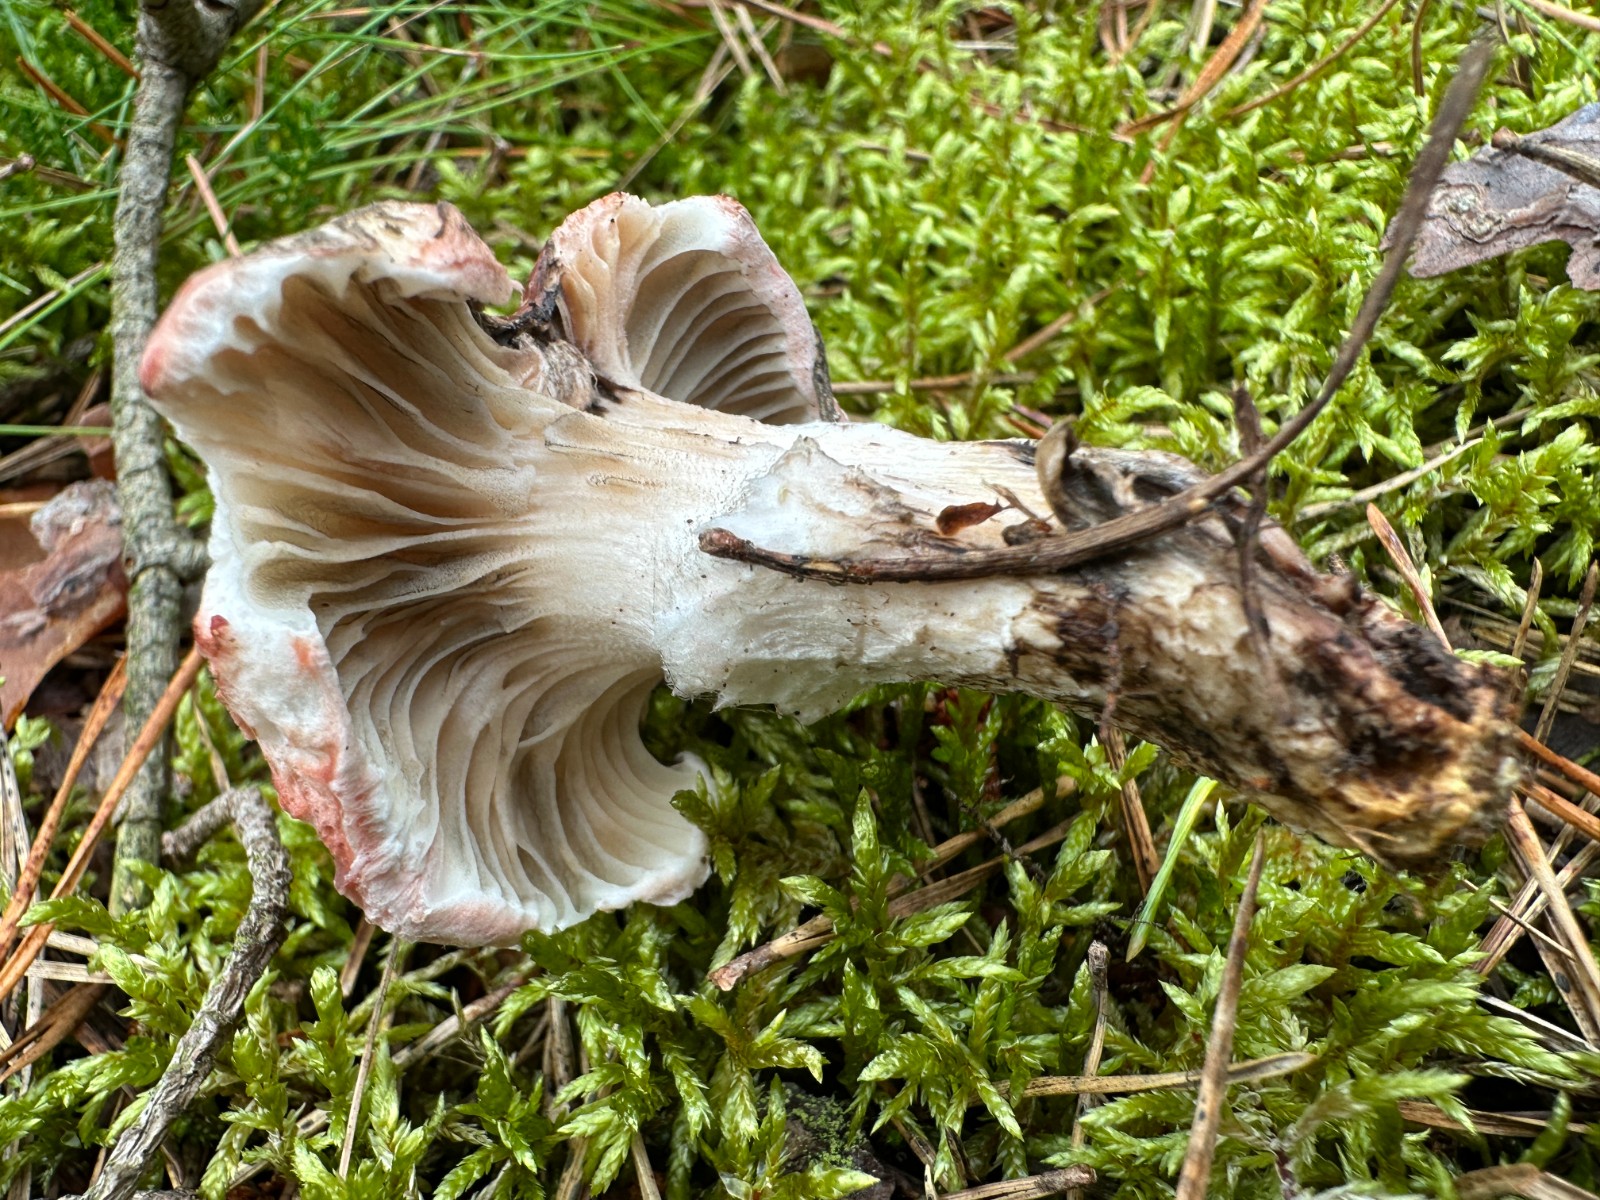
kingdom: Fungi
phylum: Basidiomycota
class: Agaricomycetes
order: Boletales
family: Gomphidiaceae
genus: Gomphidius
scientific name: Gomphidius roseus
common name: rosenrød slimslør
